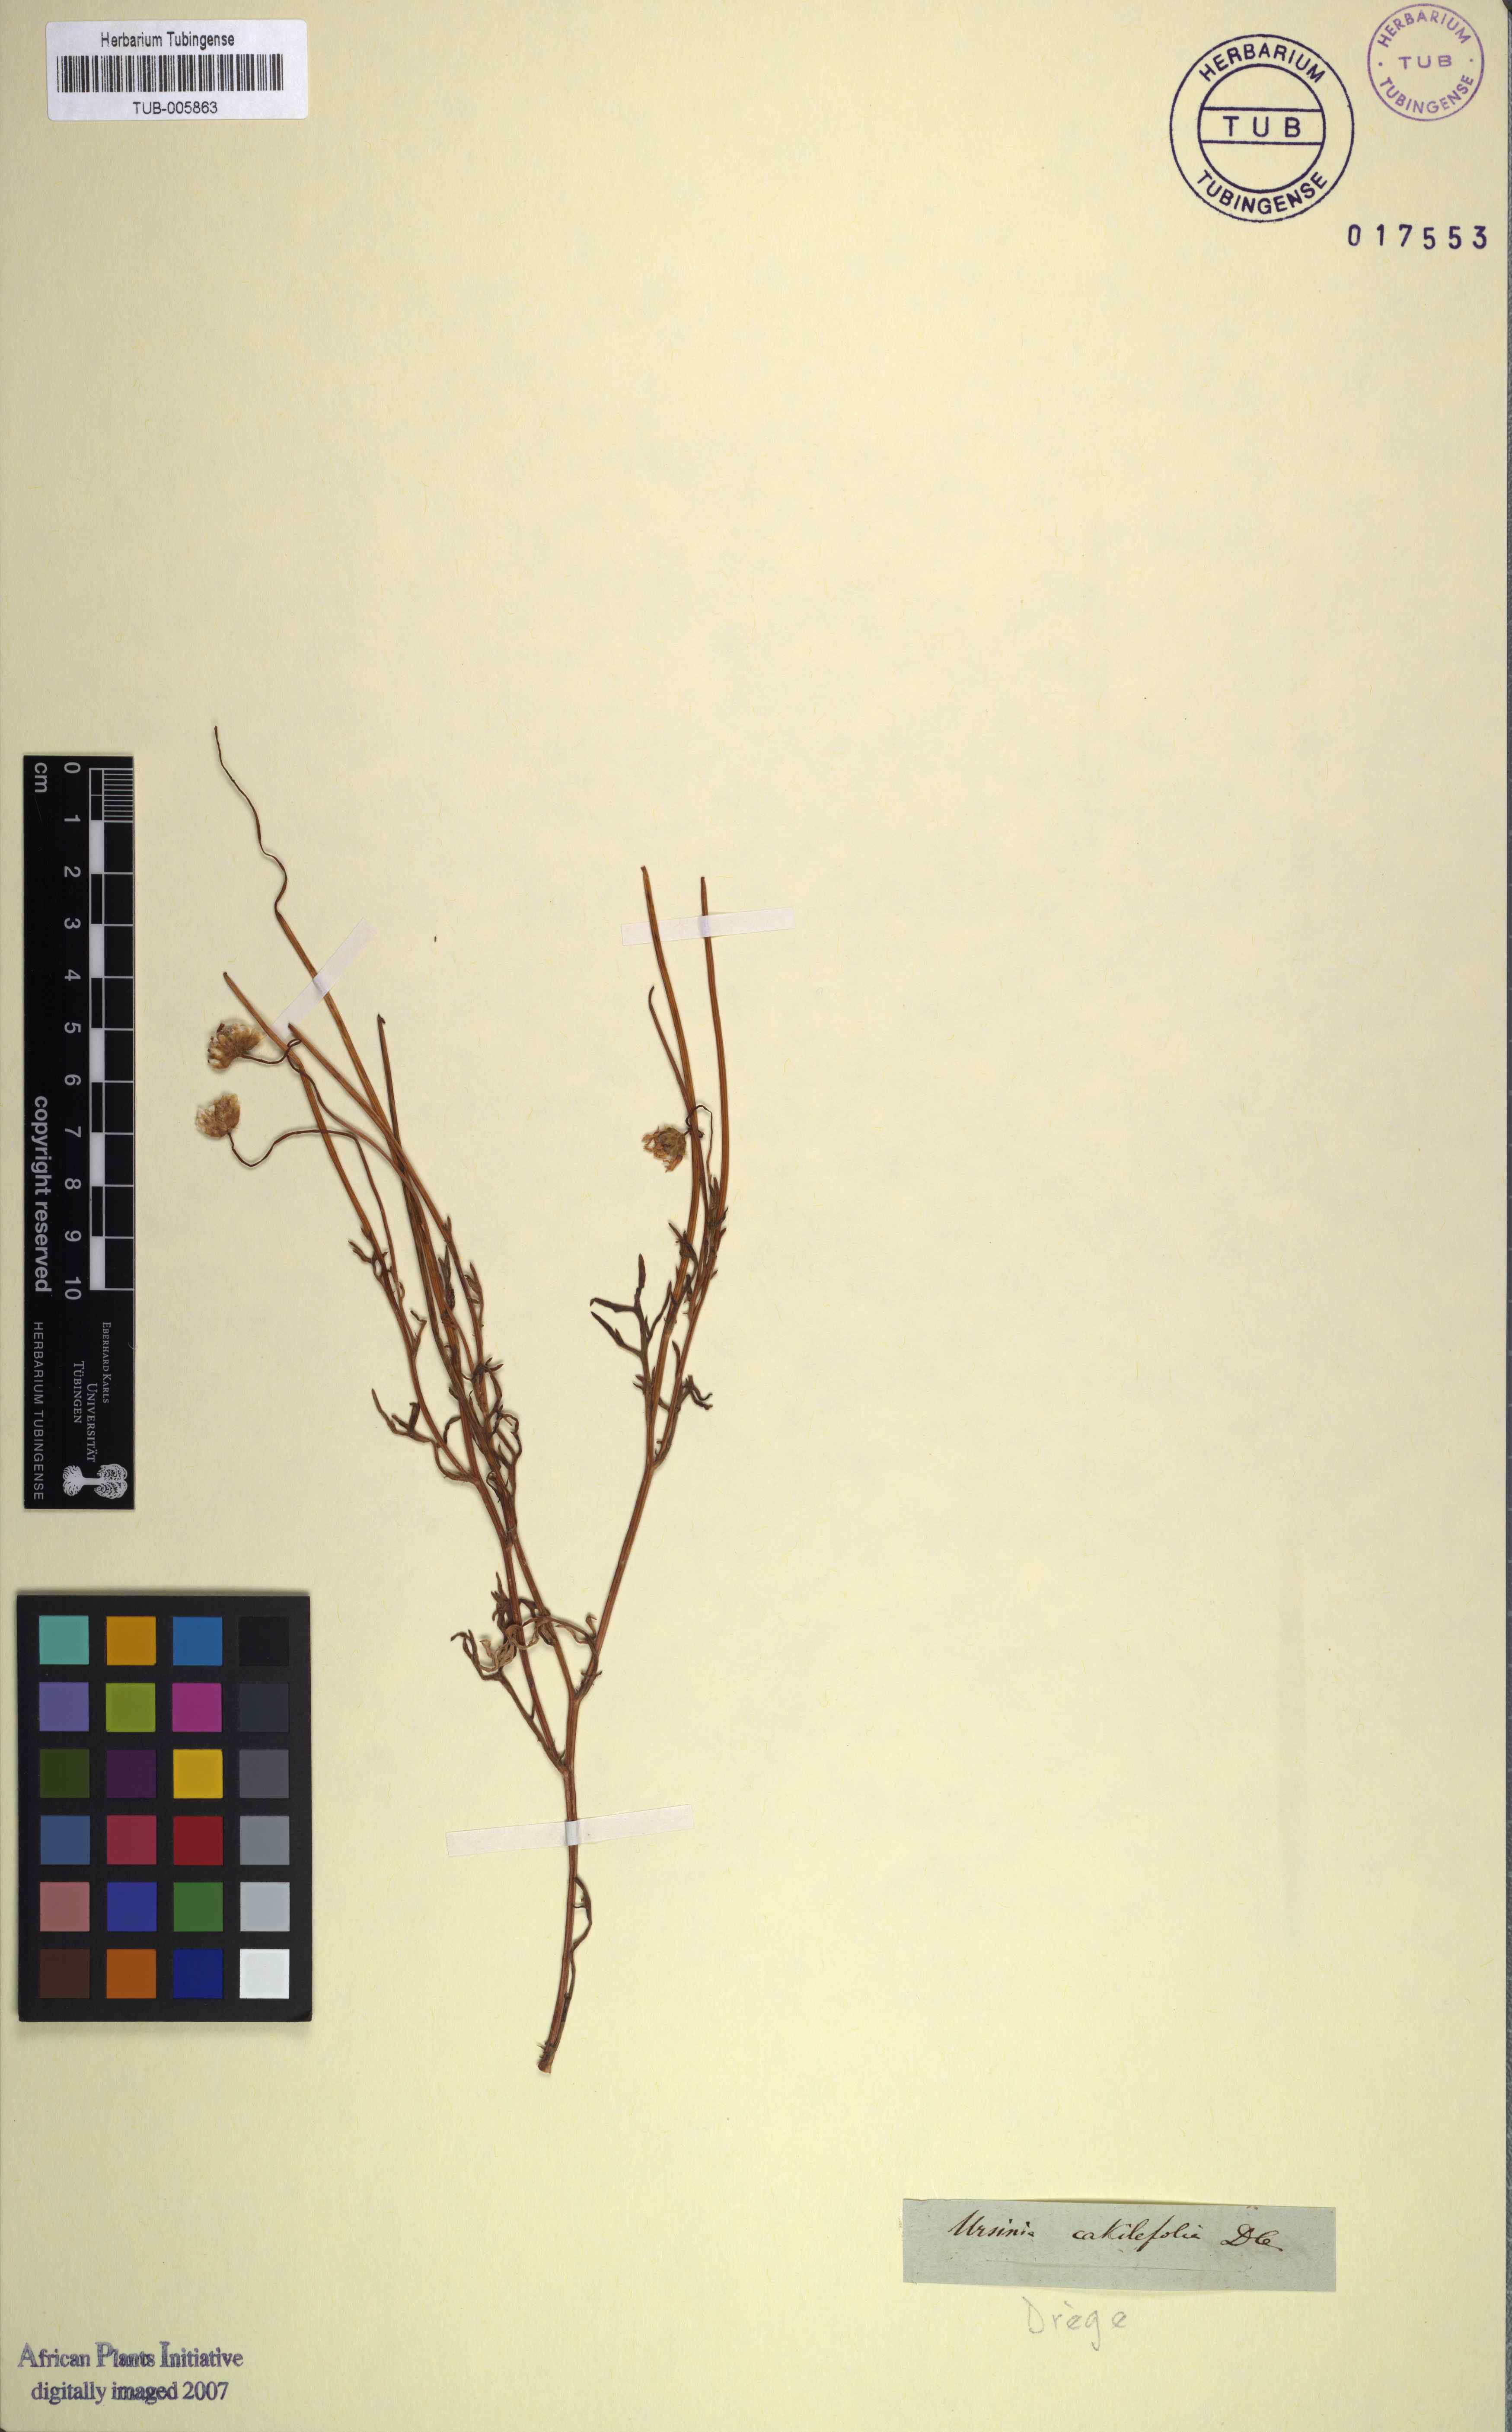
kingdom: Plantae
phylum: Tracheophyta
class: Magnoliopsida
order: Asterales
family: Asteraceae
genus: Ursinia
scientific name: Ursinia cakilefolia
